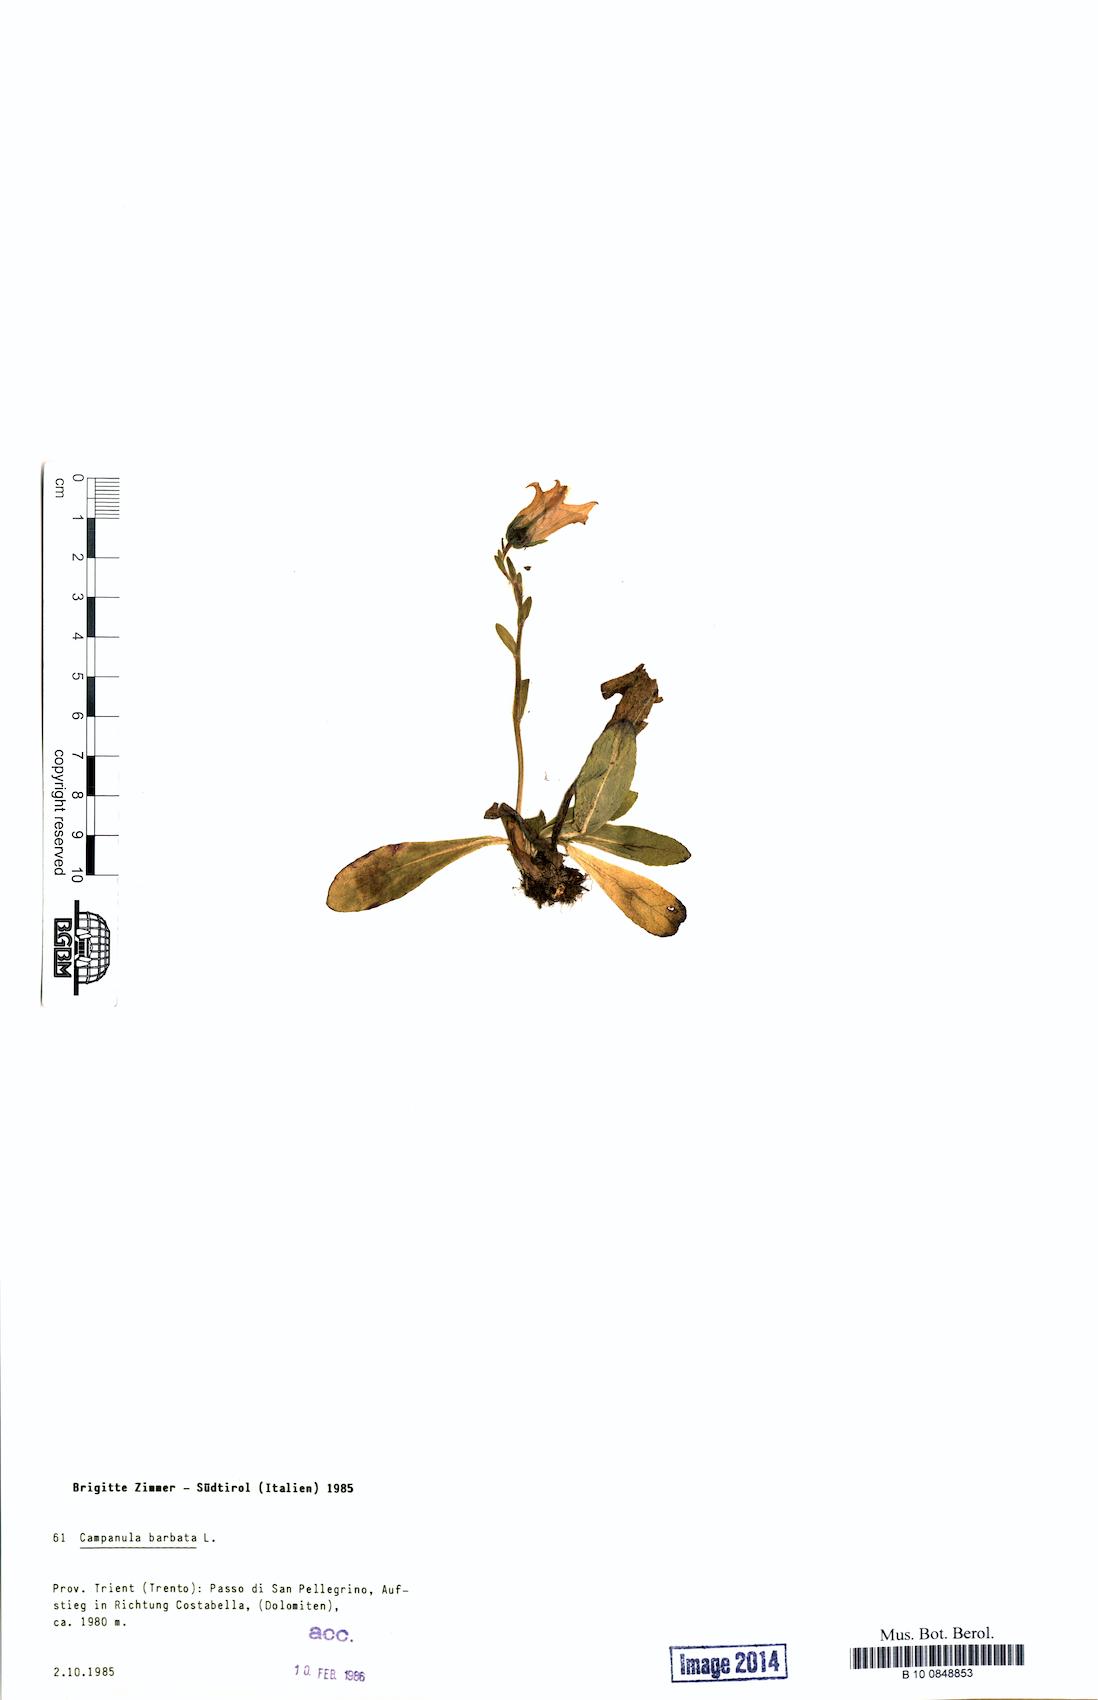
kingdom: Plantae
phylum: Tracheophyta
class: Magnoliopsida
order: Asterales
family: Campanulaceae
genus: Campanula
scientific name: Campanula barbata
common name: Bearded bellflower
